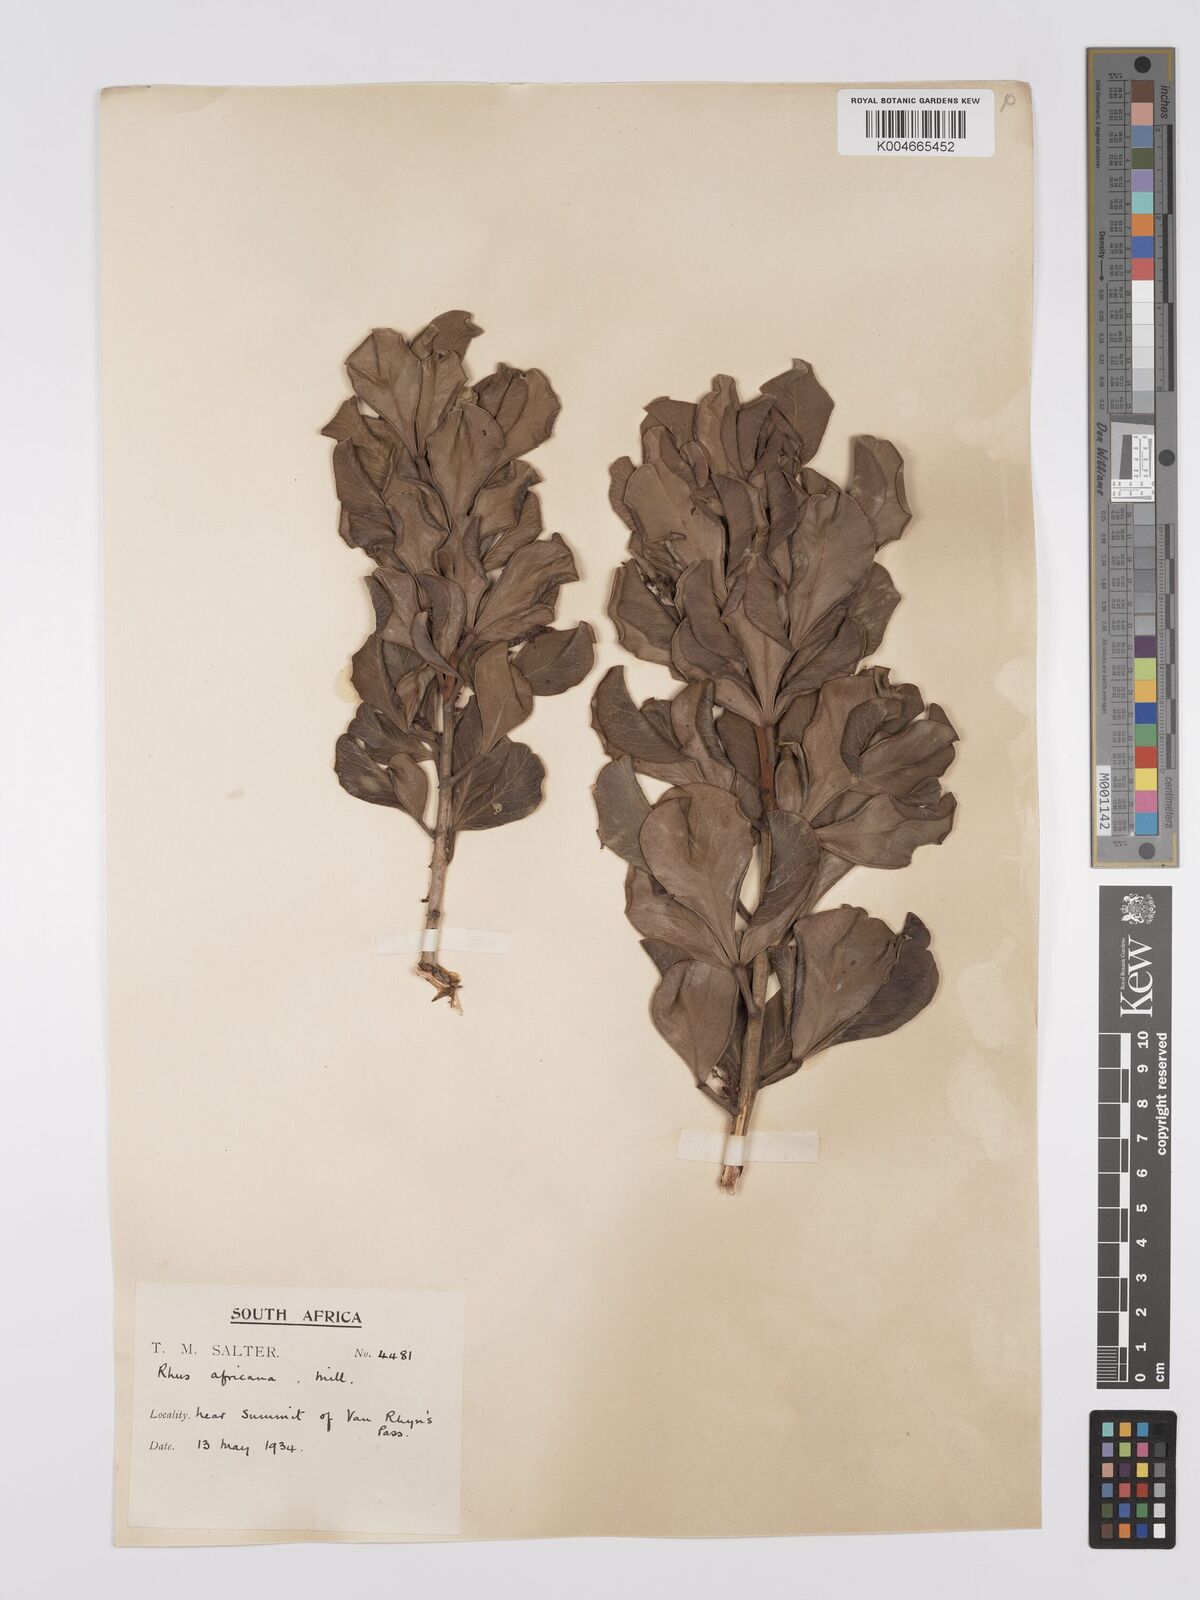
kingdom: Plantae
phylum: Tracheophyta
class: Magnoliopsida
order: Sapindales
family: Anacardiaceae
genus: Searsia
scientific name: Searsia lucida
